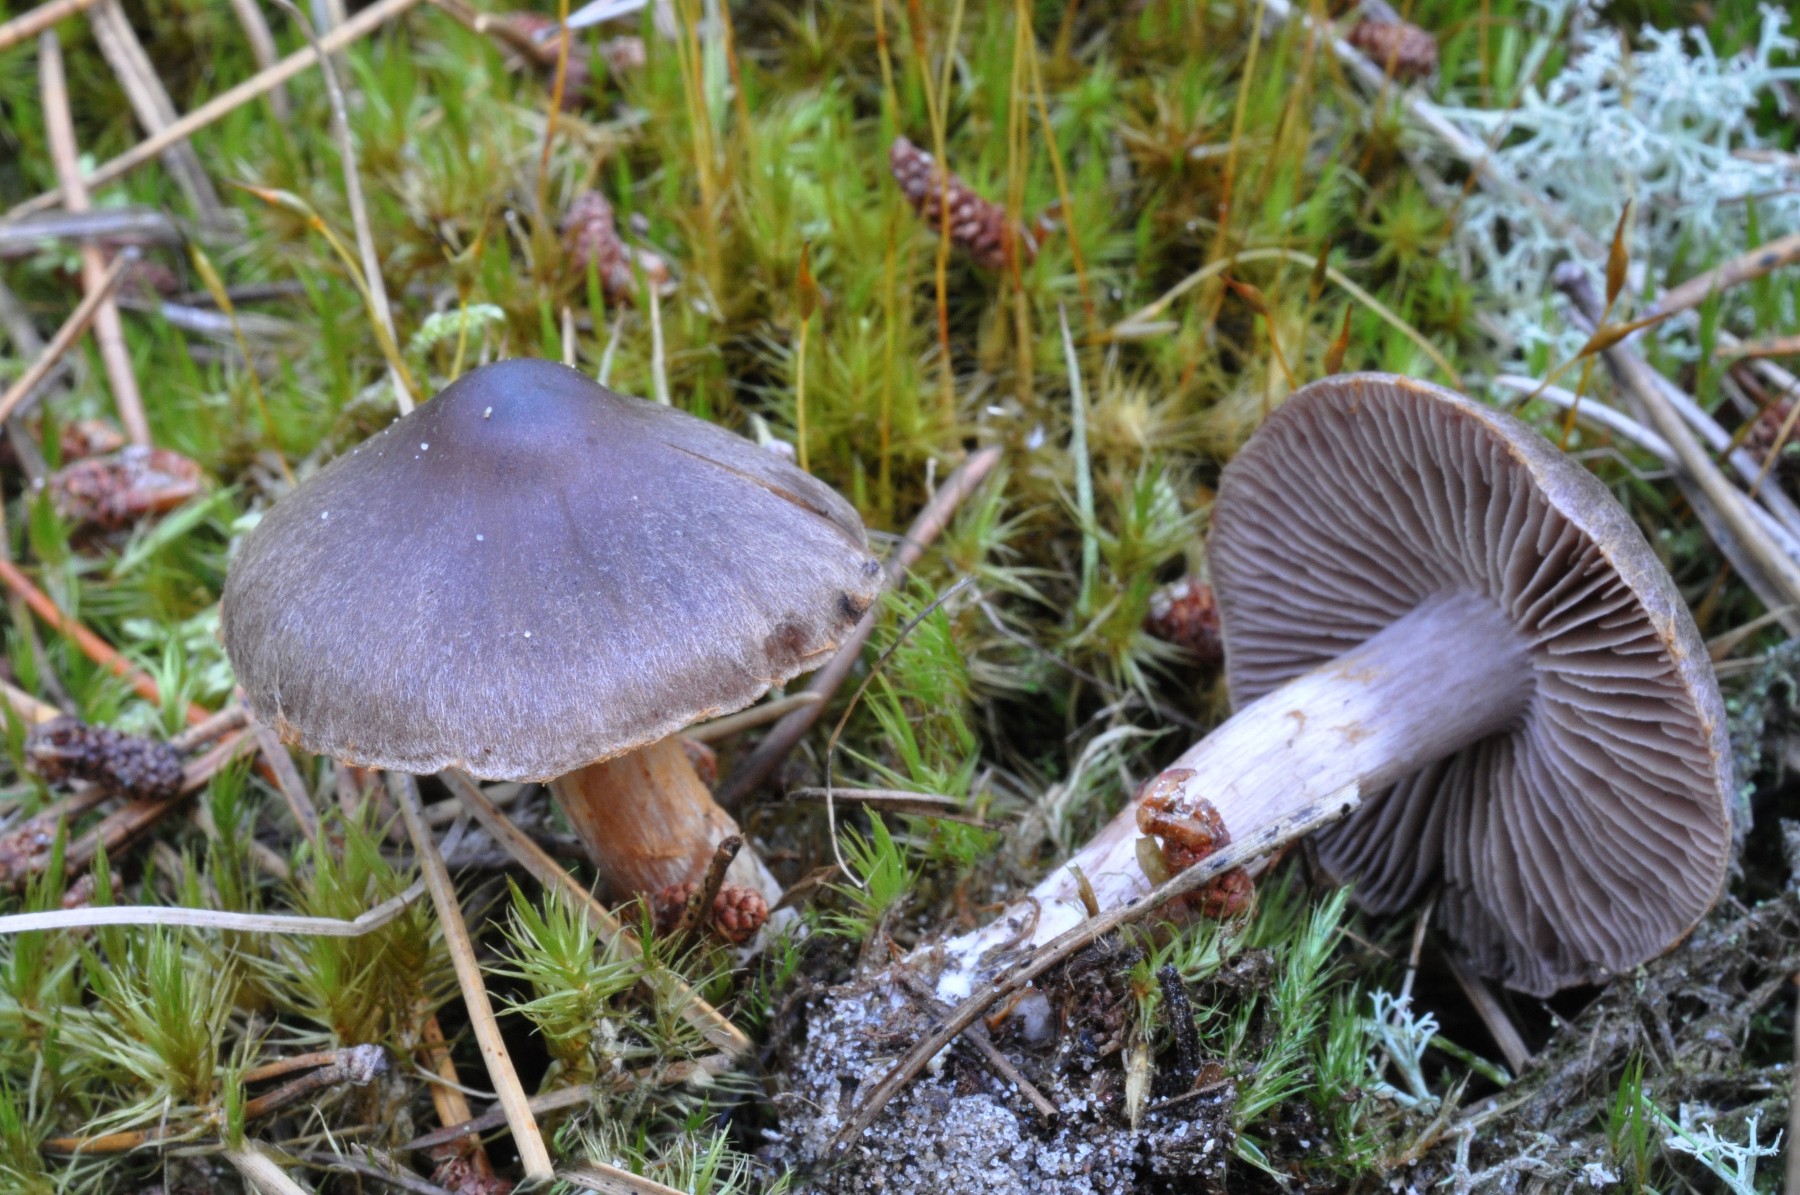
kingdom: Fungi
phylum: Basidiomycota
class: Agaricomycetes
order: Agaricales
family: Cortinariaceae
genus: Cortinarius
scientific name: Cortinarius inconspicuus
